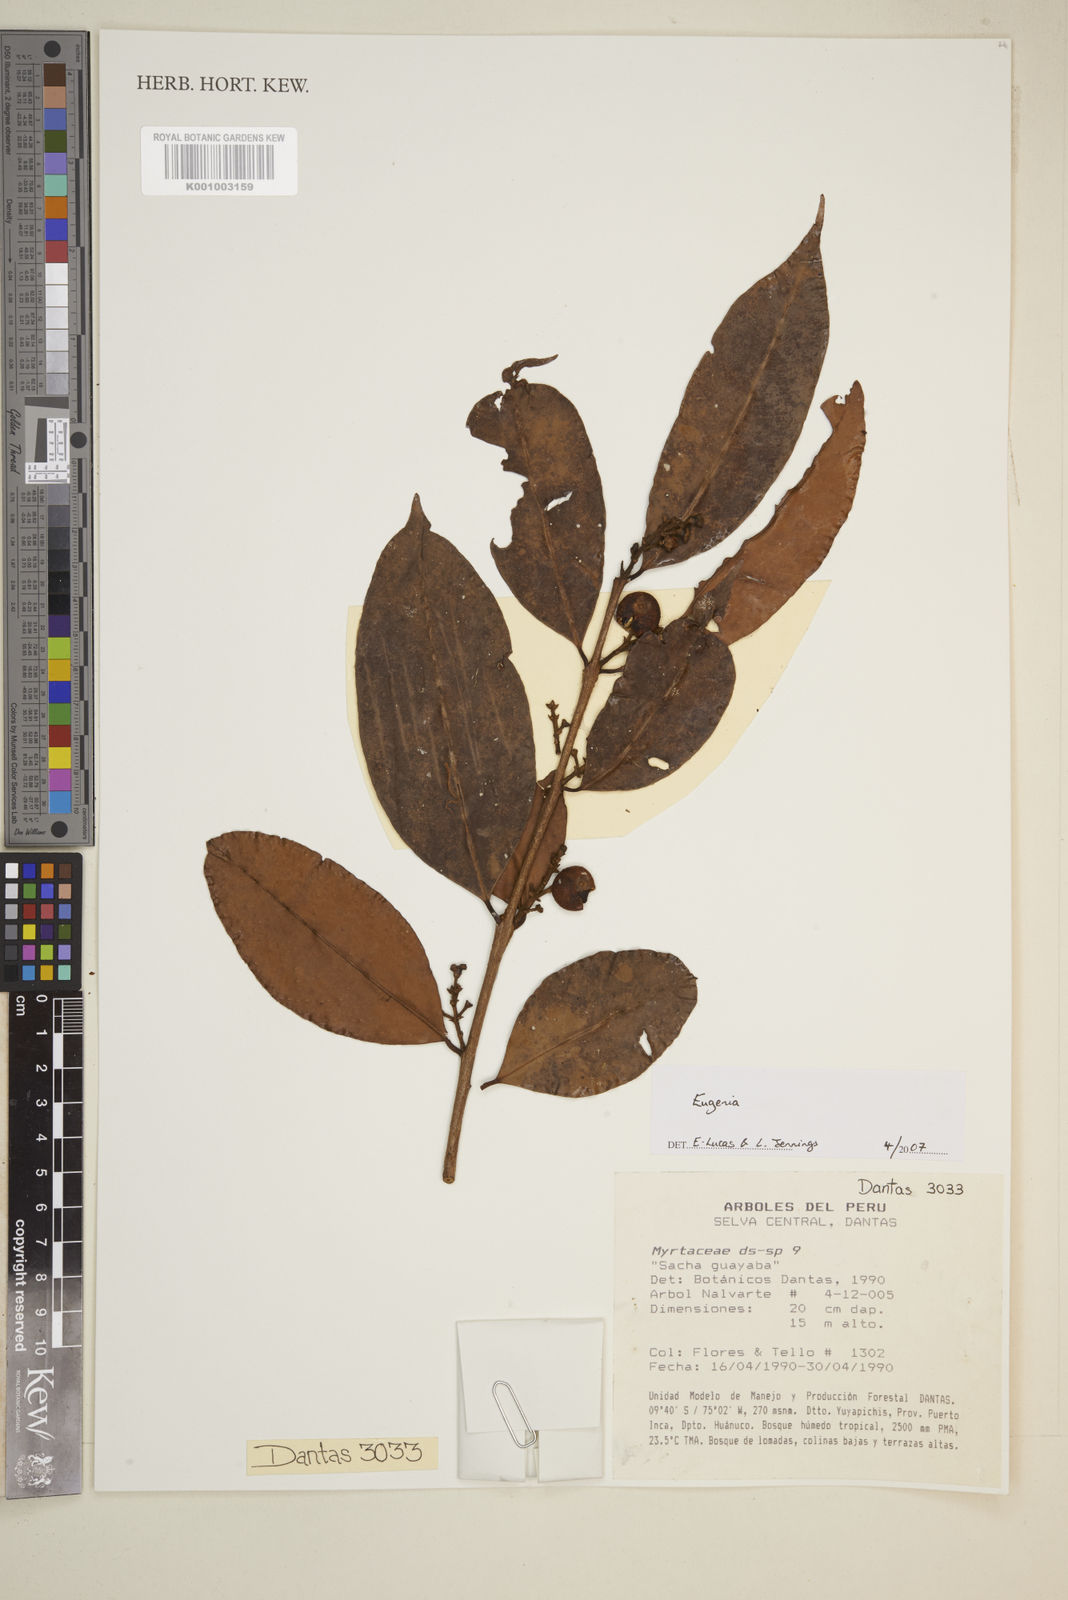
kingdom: Plantae
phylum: Tracheophyta
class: Magnoliopsida
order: Myrtales
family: Myrtaceae
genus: Eugenia
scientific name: Eugenia
